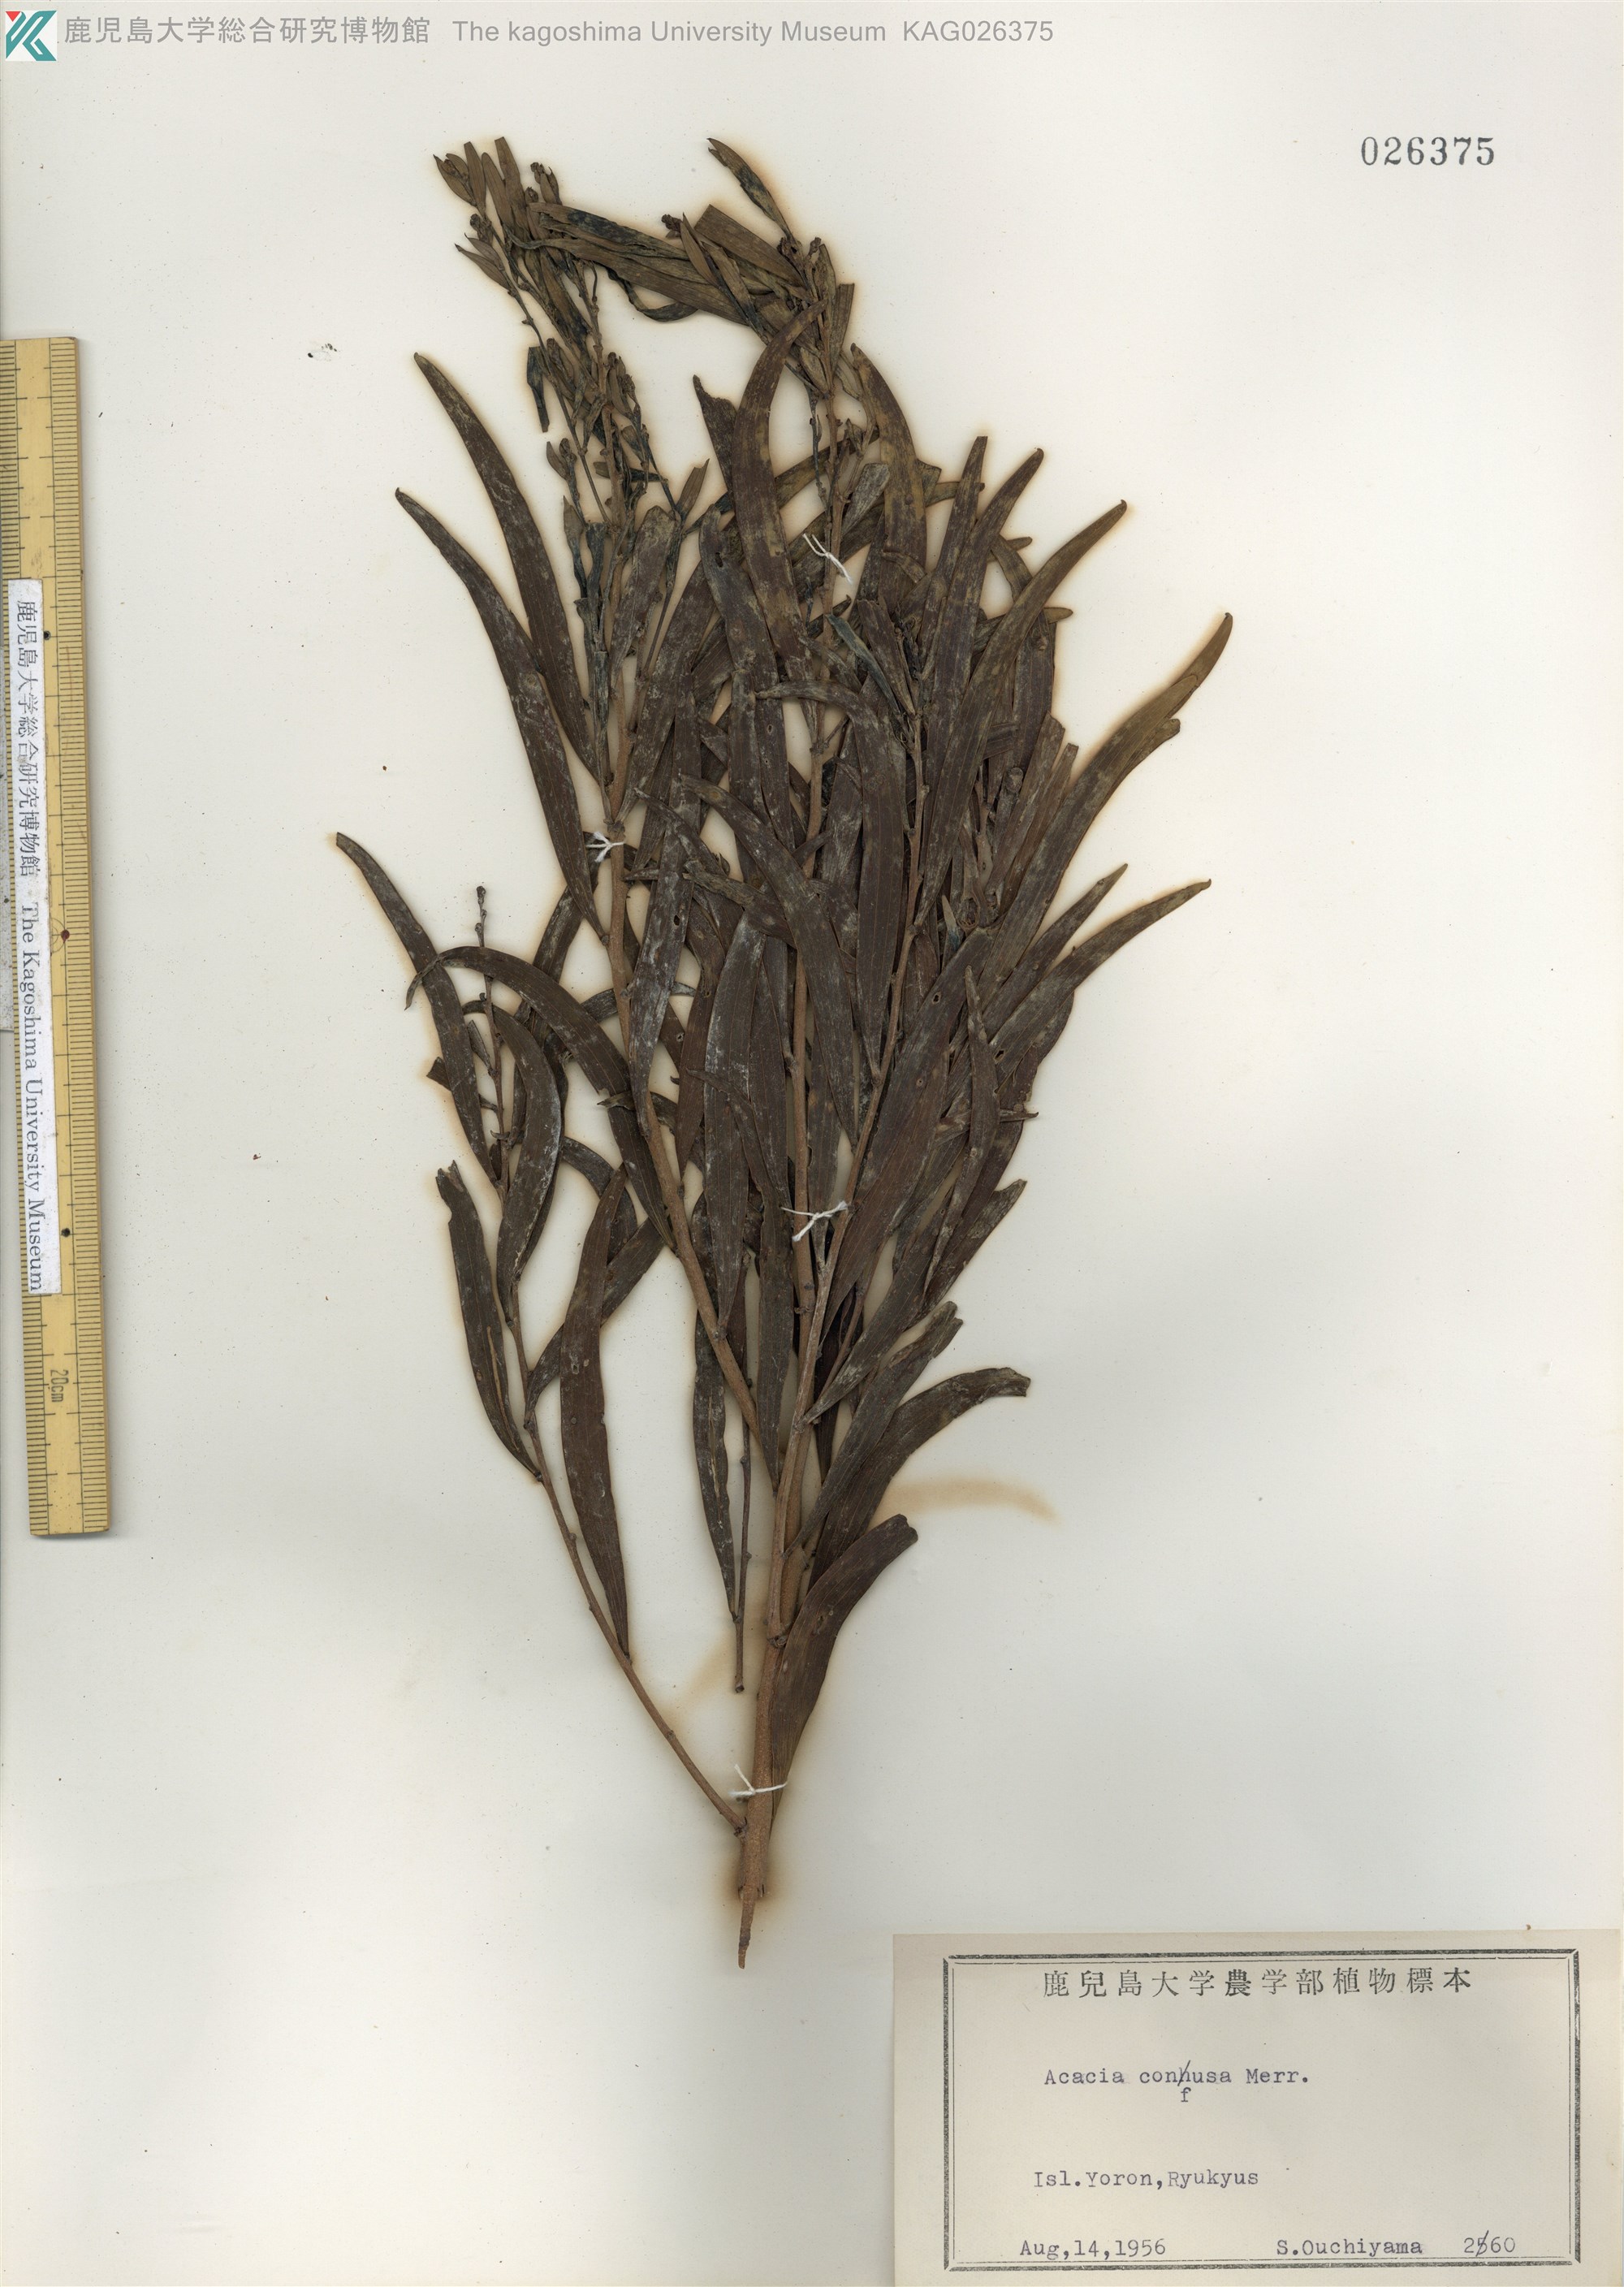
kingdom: Plantae
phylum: Tracheophyta
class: Magnoliopsida
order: Fabales
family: Fabaceae
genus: Acacia
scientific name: Acacia confusa
